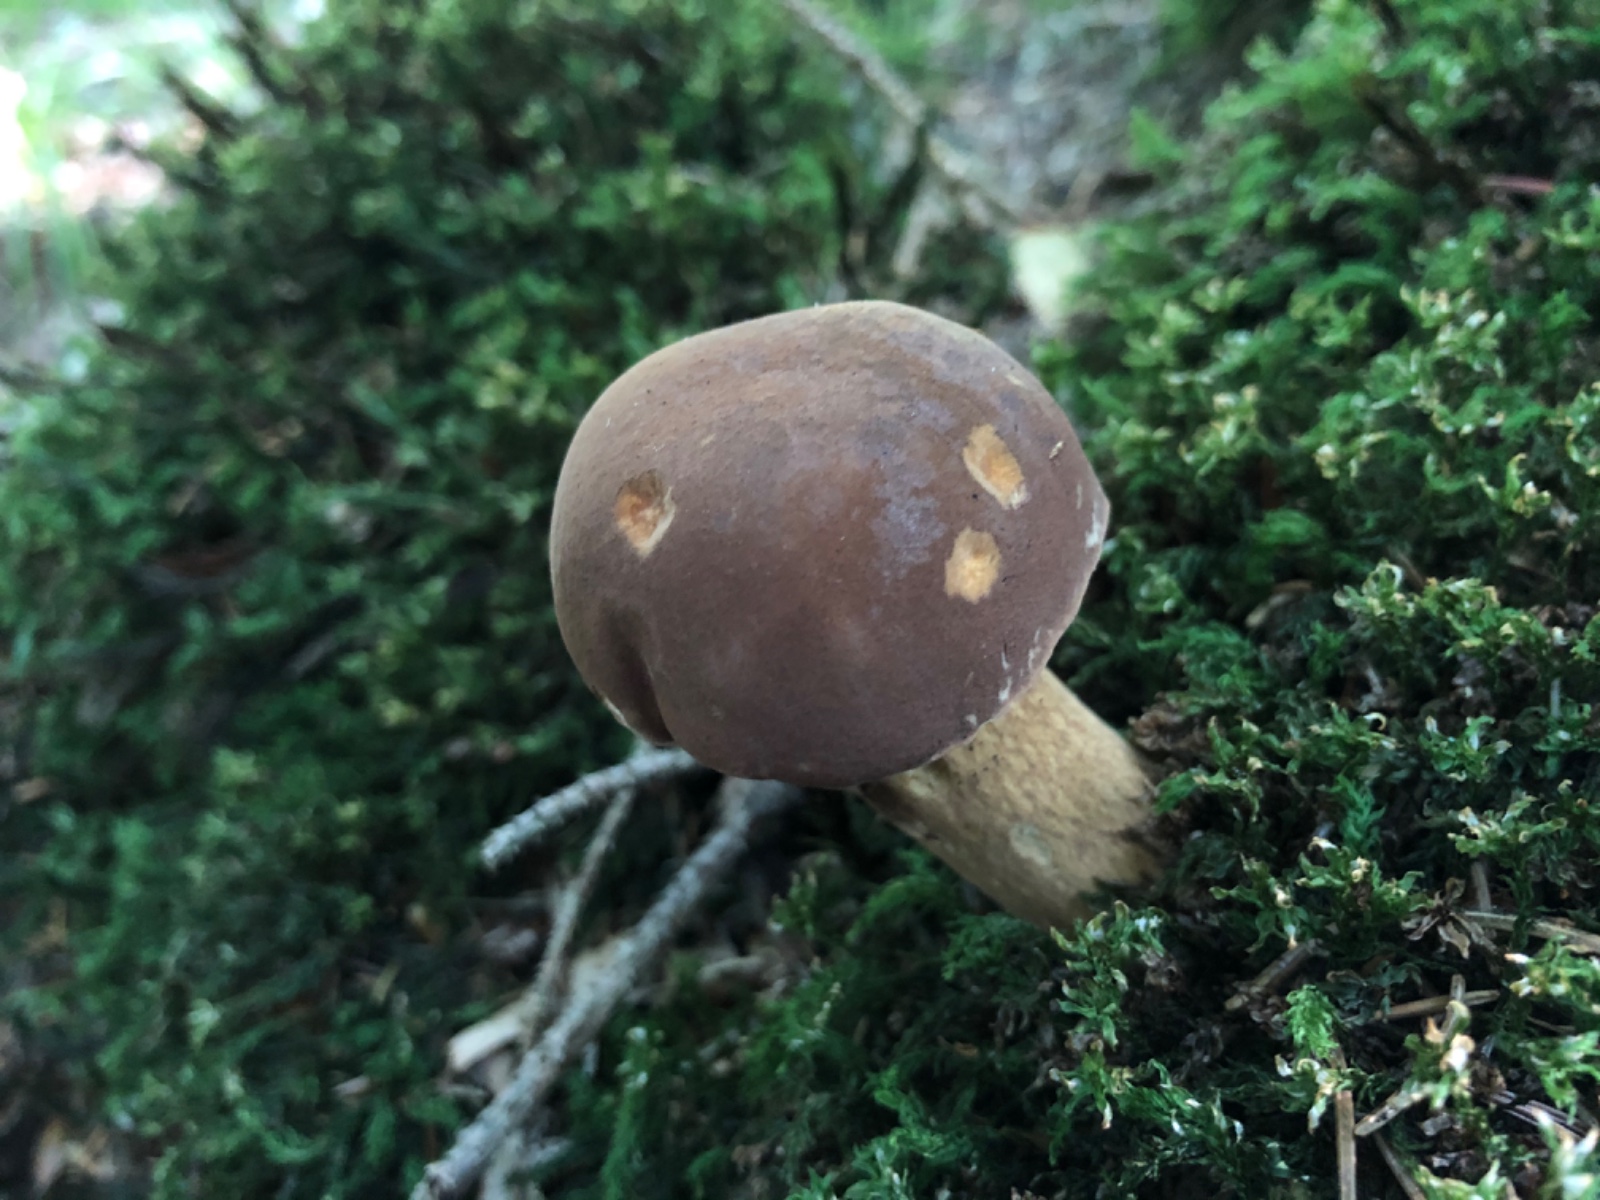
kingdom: Fungi
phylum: Basidiomycota
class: Agaricomycetes
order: Boletales
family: Boletaceae
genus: Imleria
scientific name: Imleria badia
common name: brunstokket rørhat
